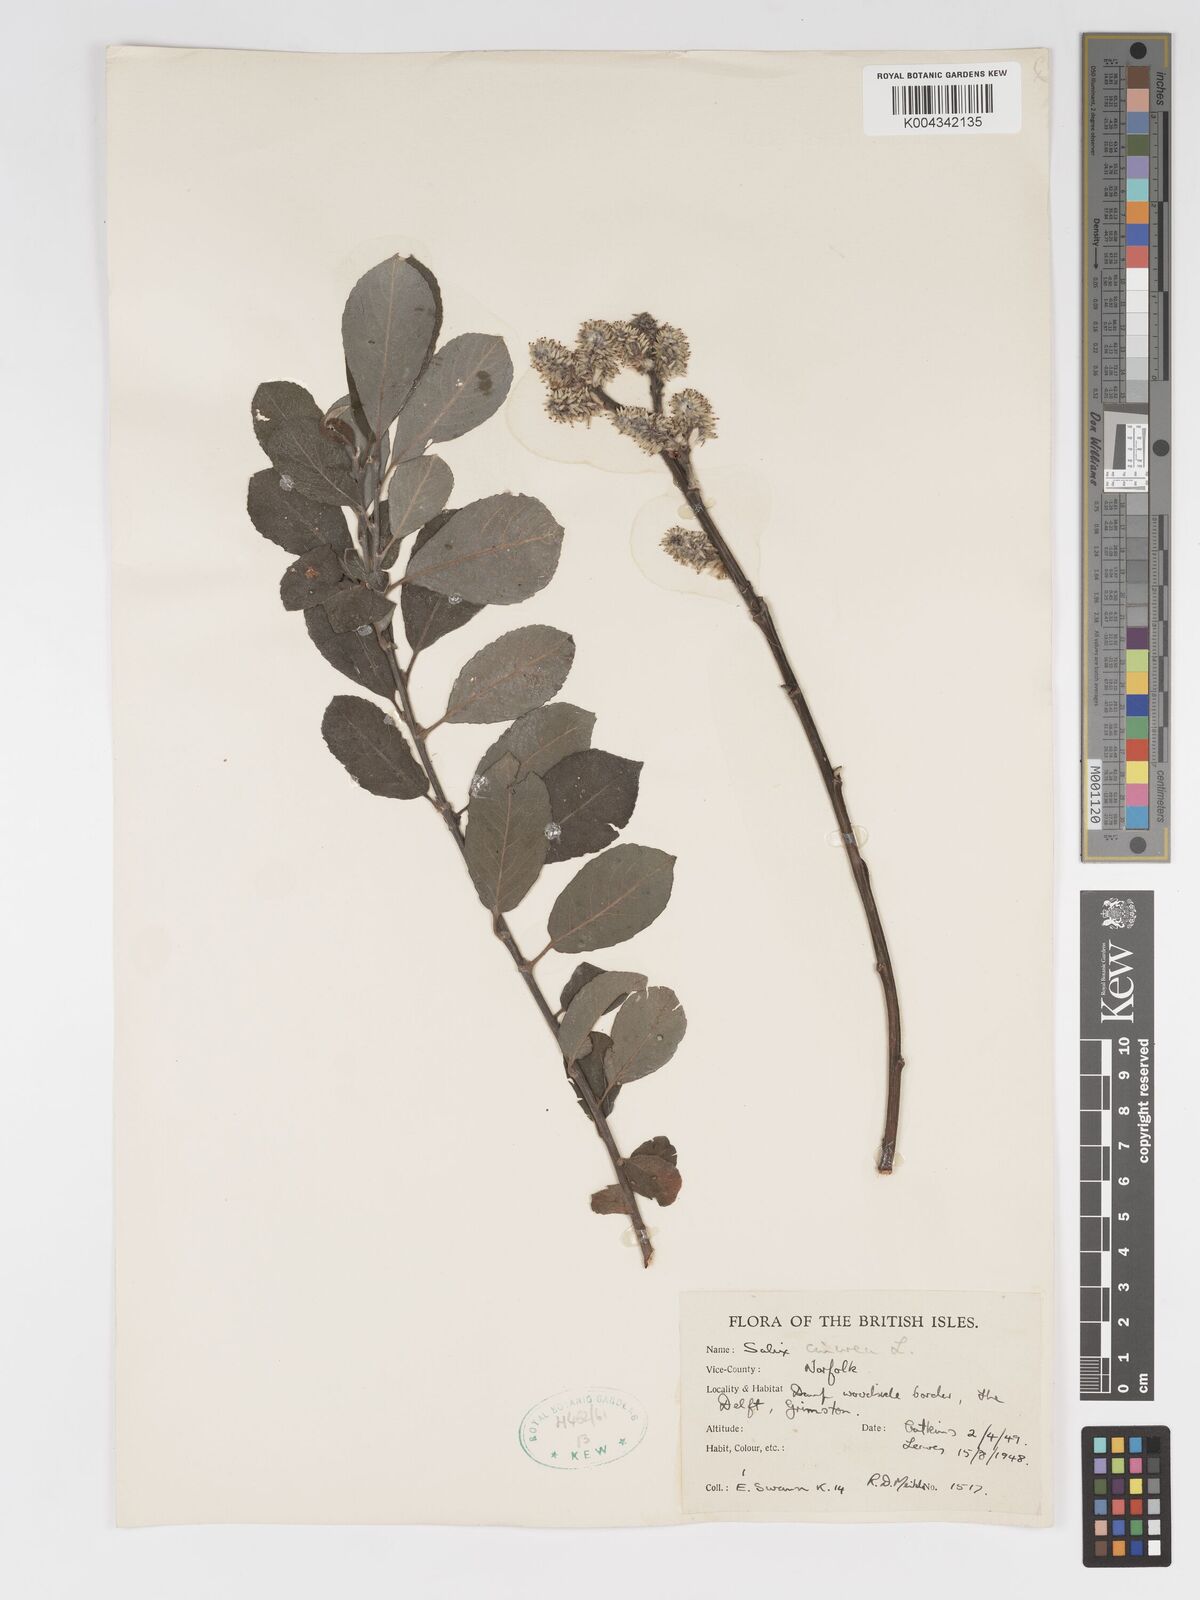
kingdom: Plantae
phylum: Tracheophyta
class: Magnoliopsida
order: Malpighiales
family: Salicaceae
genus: Salix
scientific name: Salix
